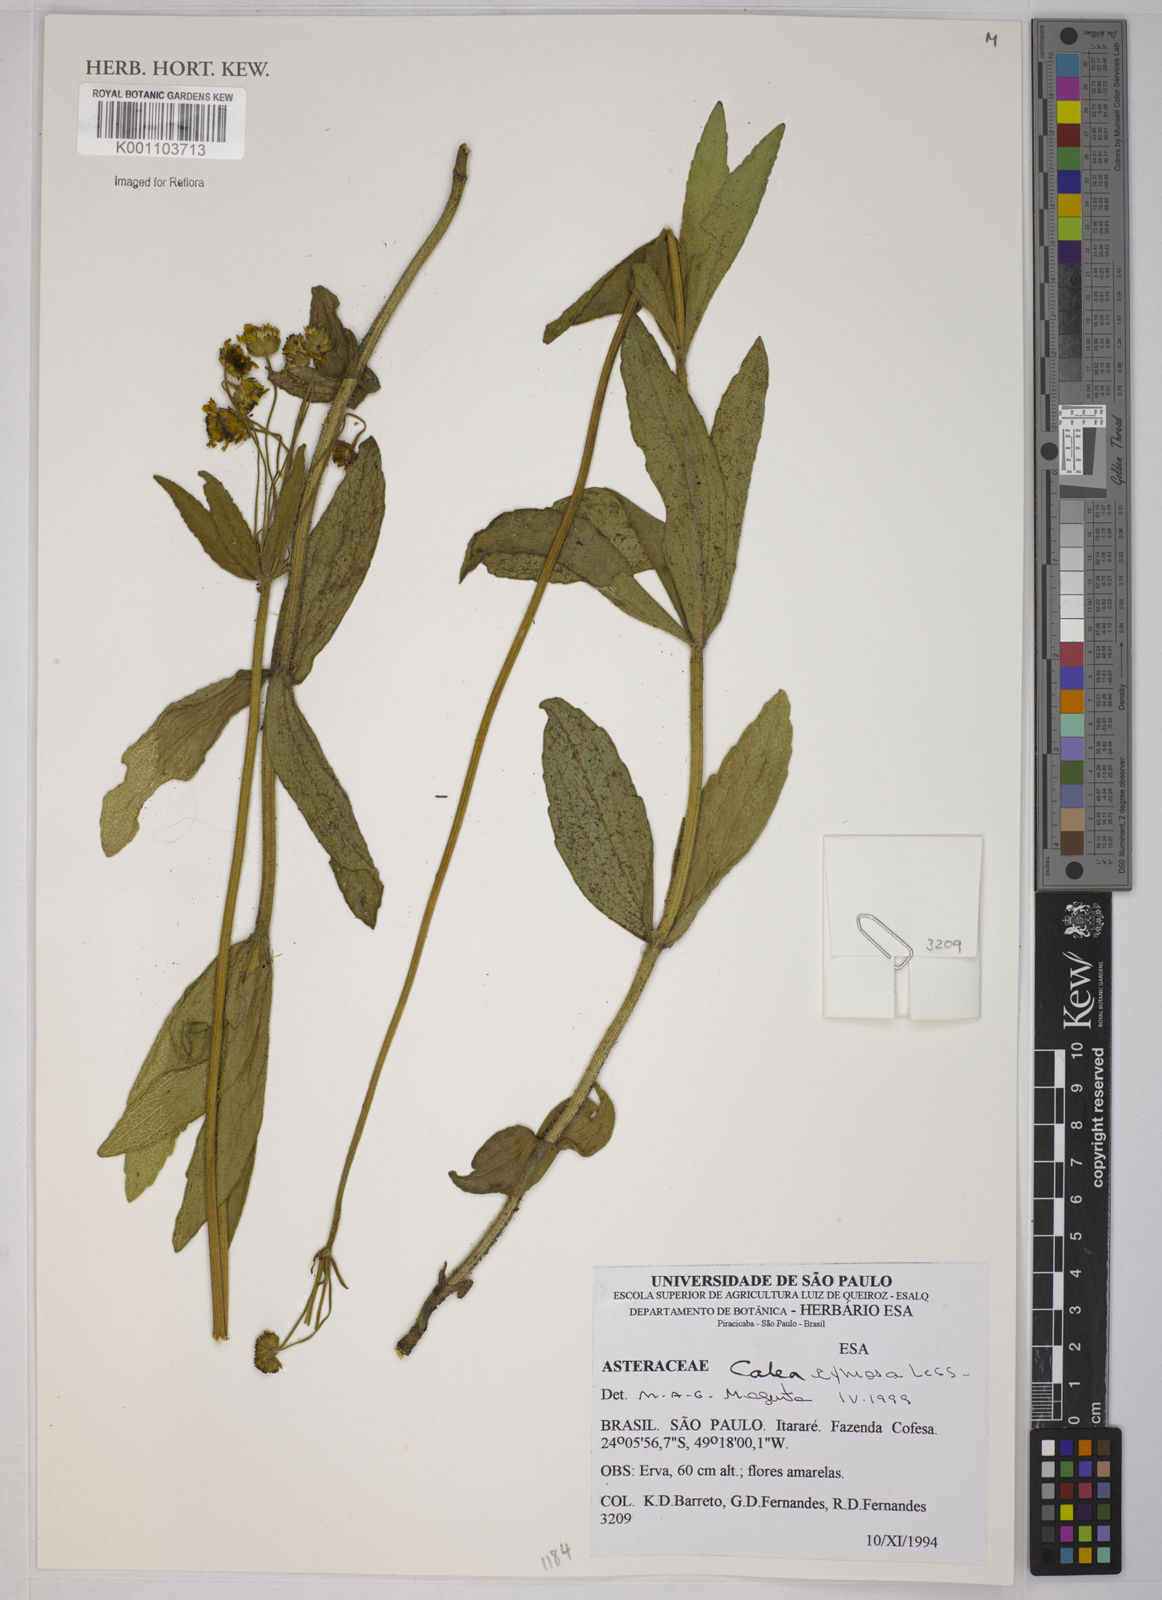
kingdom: Plantae
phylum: Tracheophyta
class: Magnoliopsida
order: Asterales
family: Asteraceae
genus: Calea
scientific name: Calea cymosa
